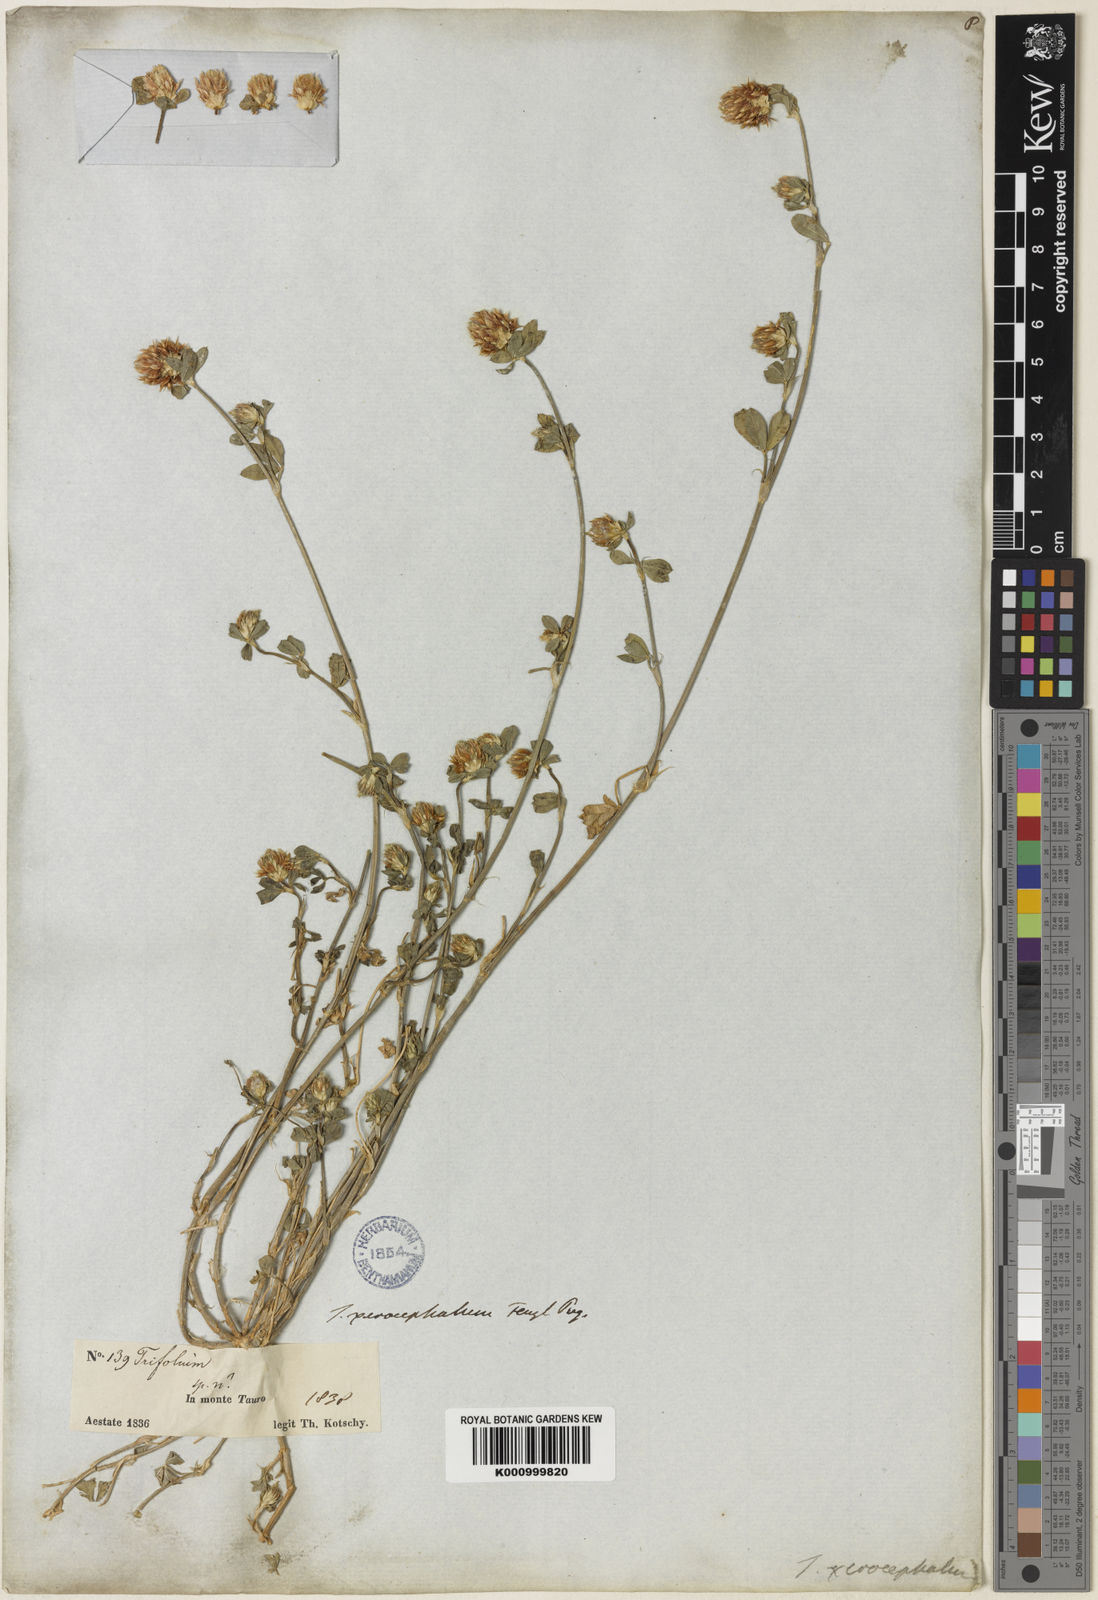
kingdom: Plantae
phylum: Tracheophyta
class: Magnoliopsida
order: Fabales
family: Fabaceae
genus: Trifolium
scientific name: Trifolium argutum
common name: Sharp-tooth clover
